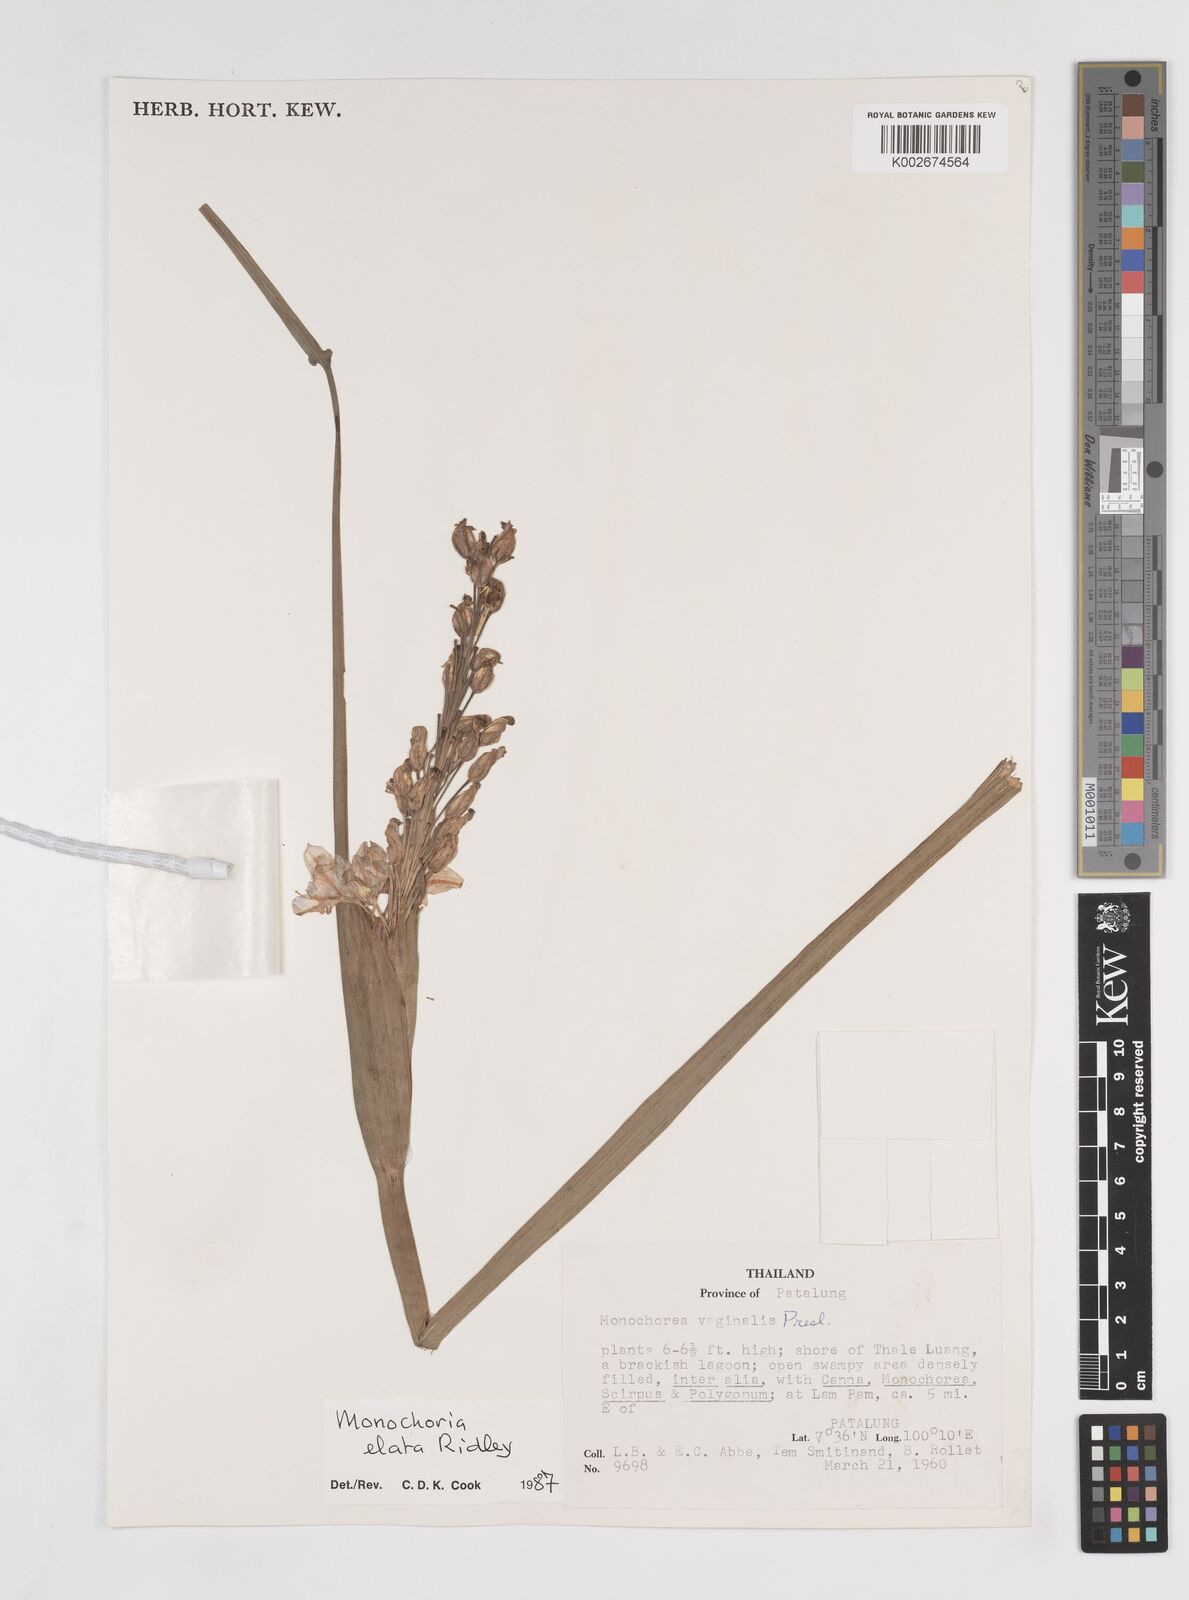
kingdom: Plantae
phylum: Tracheophyta
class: Liliopsida
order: Commelinales
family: Pontederiaceae
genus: Pontederia
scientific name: Pontederia elata
